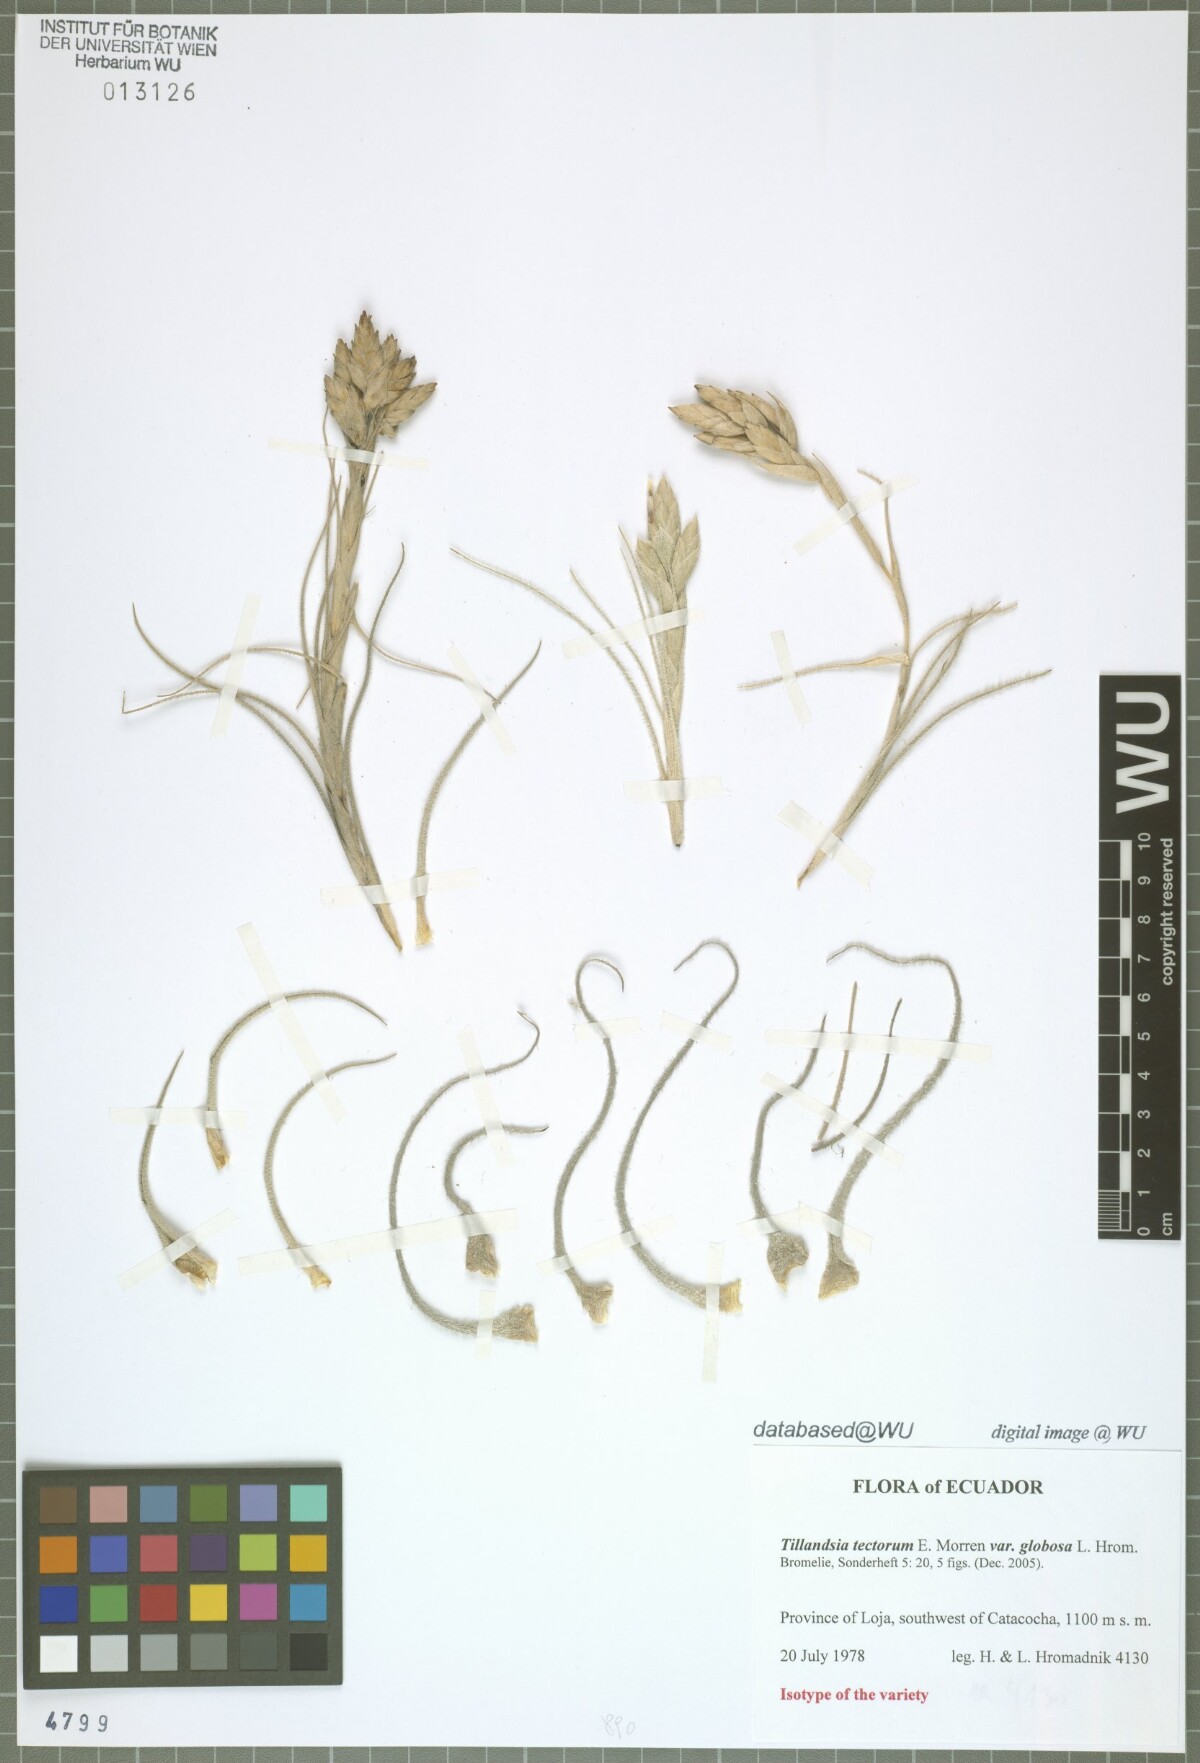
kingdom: Plantae
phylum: Tracheophyta
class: Liliopsida
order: Poales
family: Bromeliaceae
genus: Tillandsia
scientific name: Tillandsia tectorum
